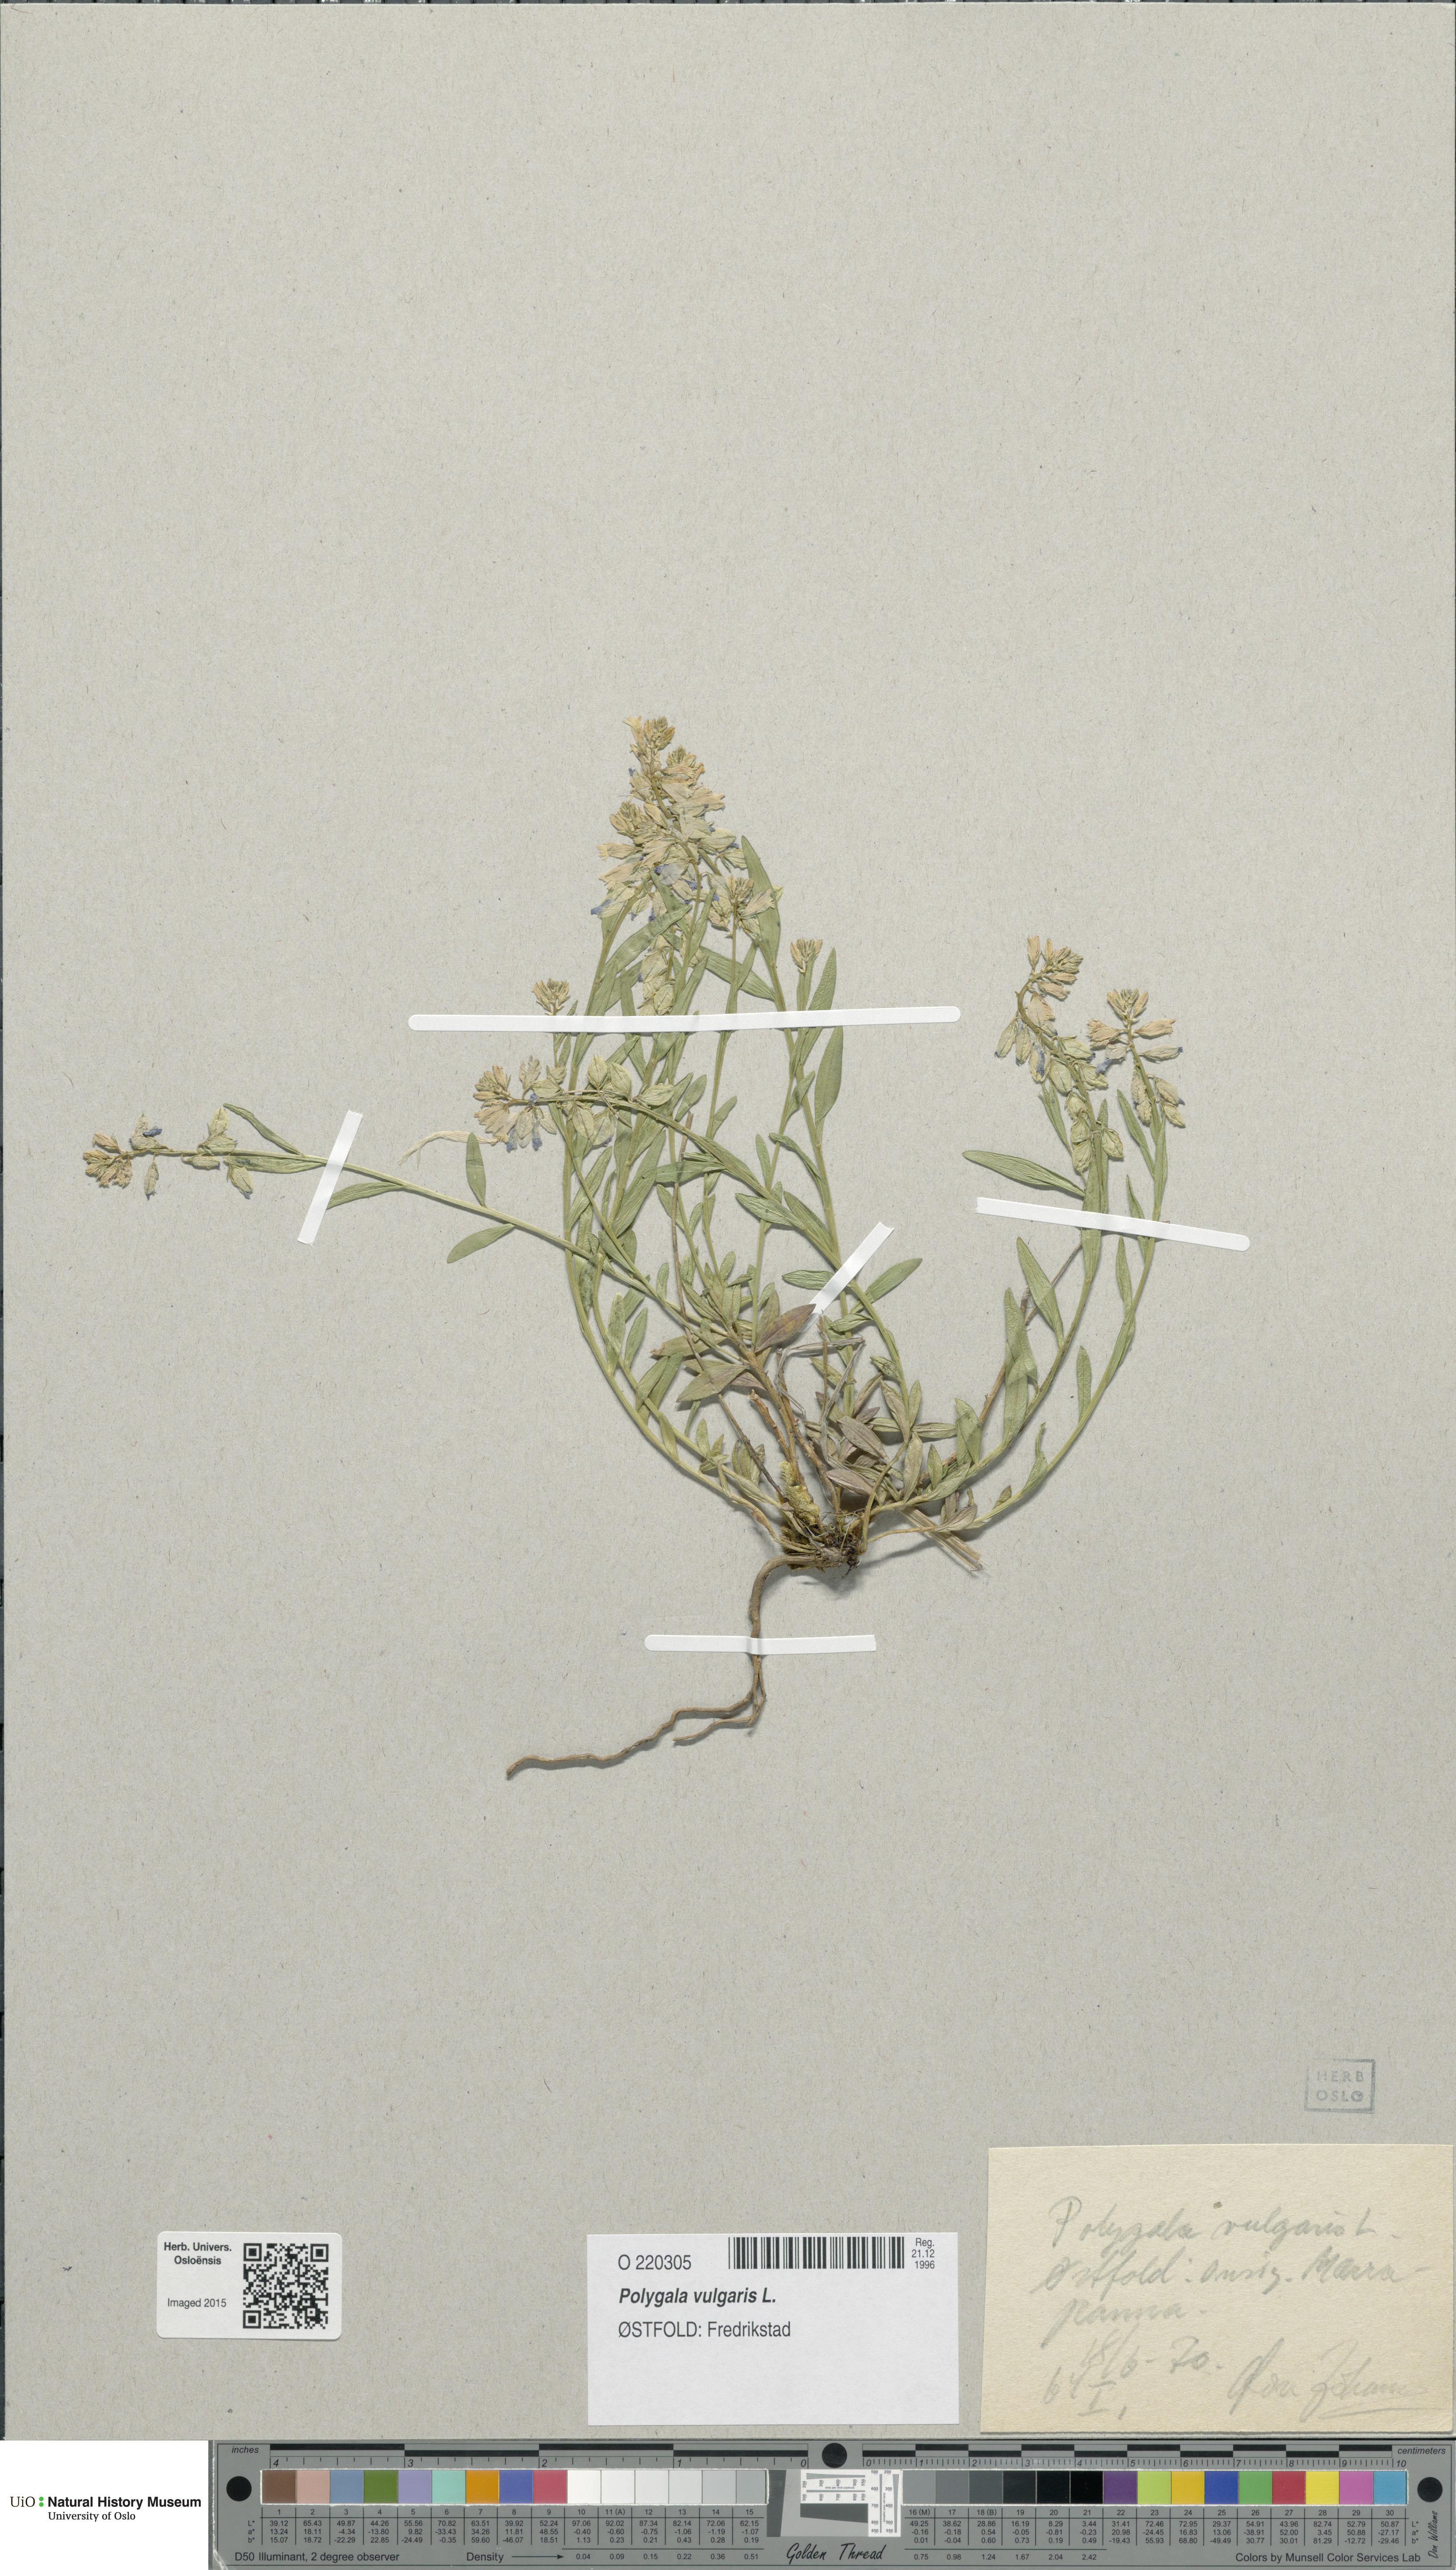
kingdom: Plantae
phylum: Tracheophyta
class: Magnoliopsida
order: Fabales
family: Polygalaceae
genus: Polygala
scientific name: Polygala vulgaris
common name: Common milkwort
